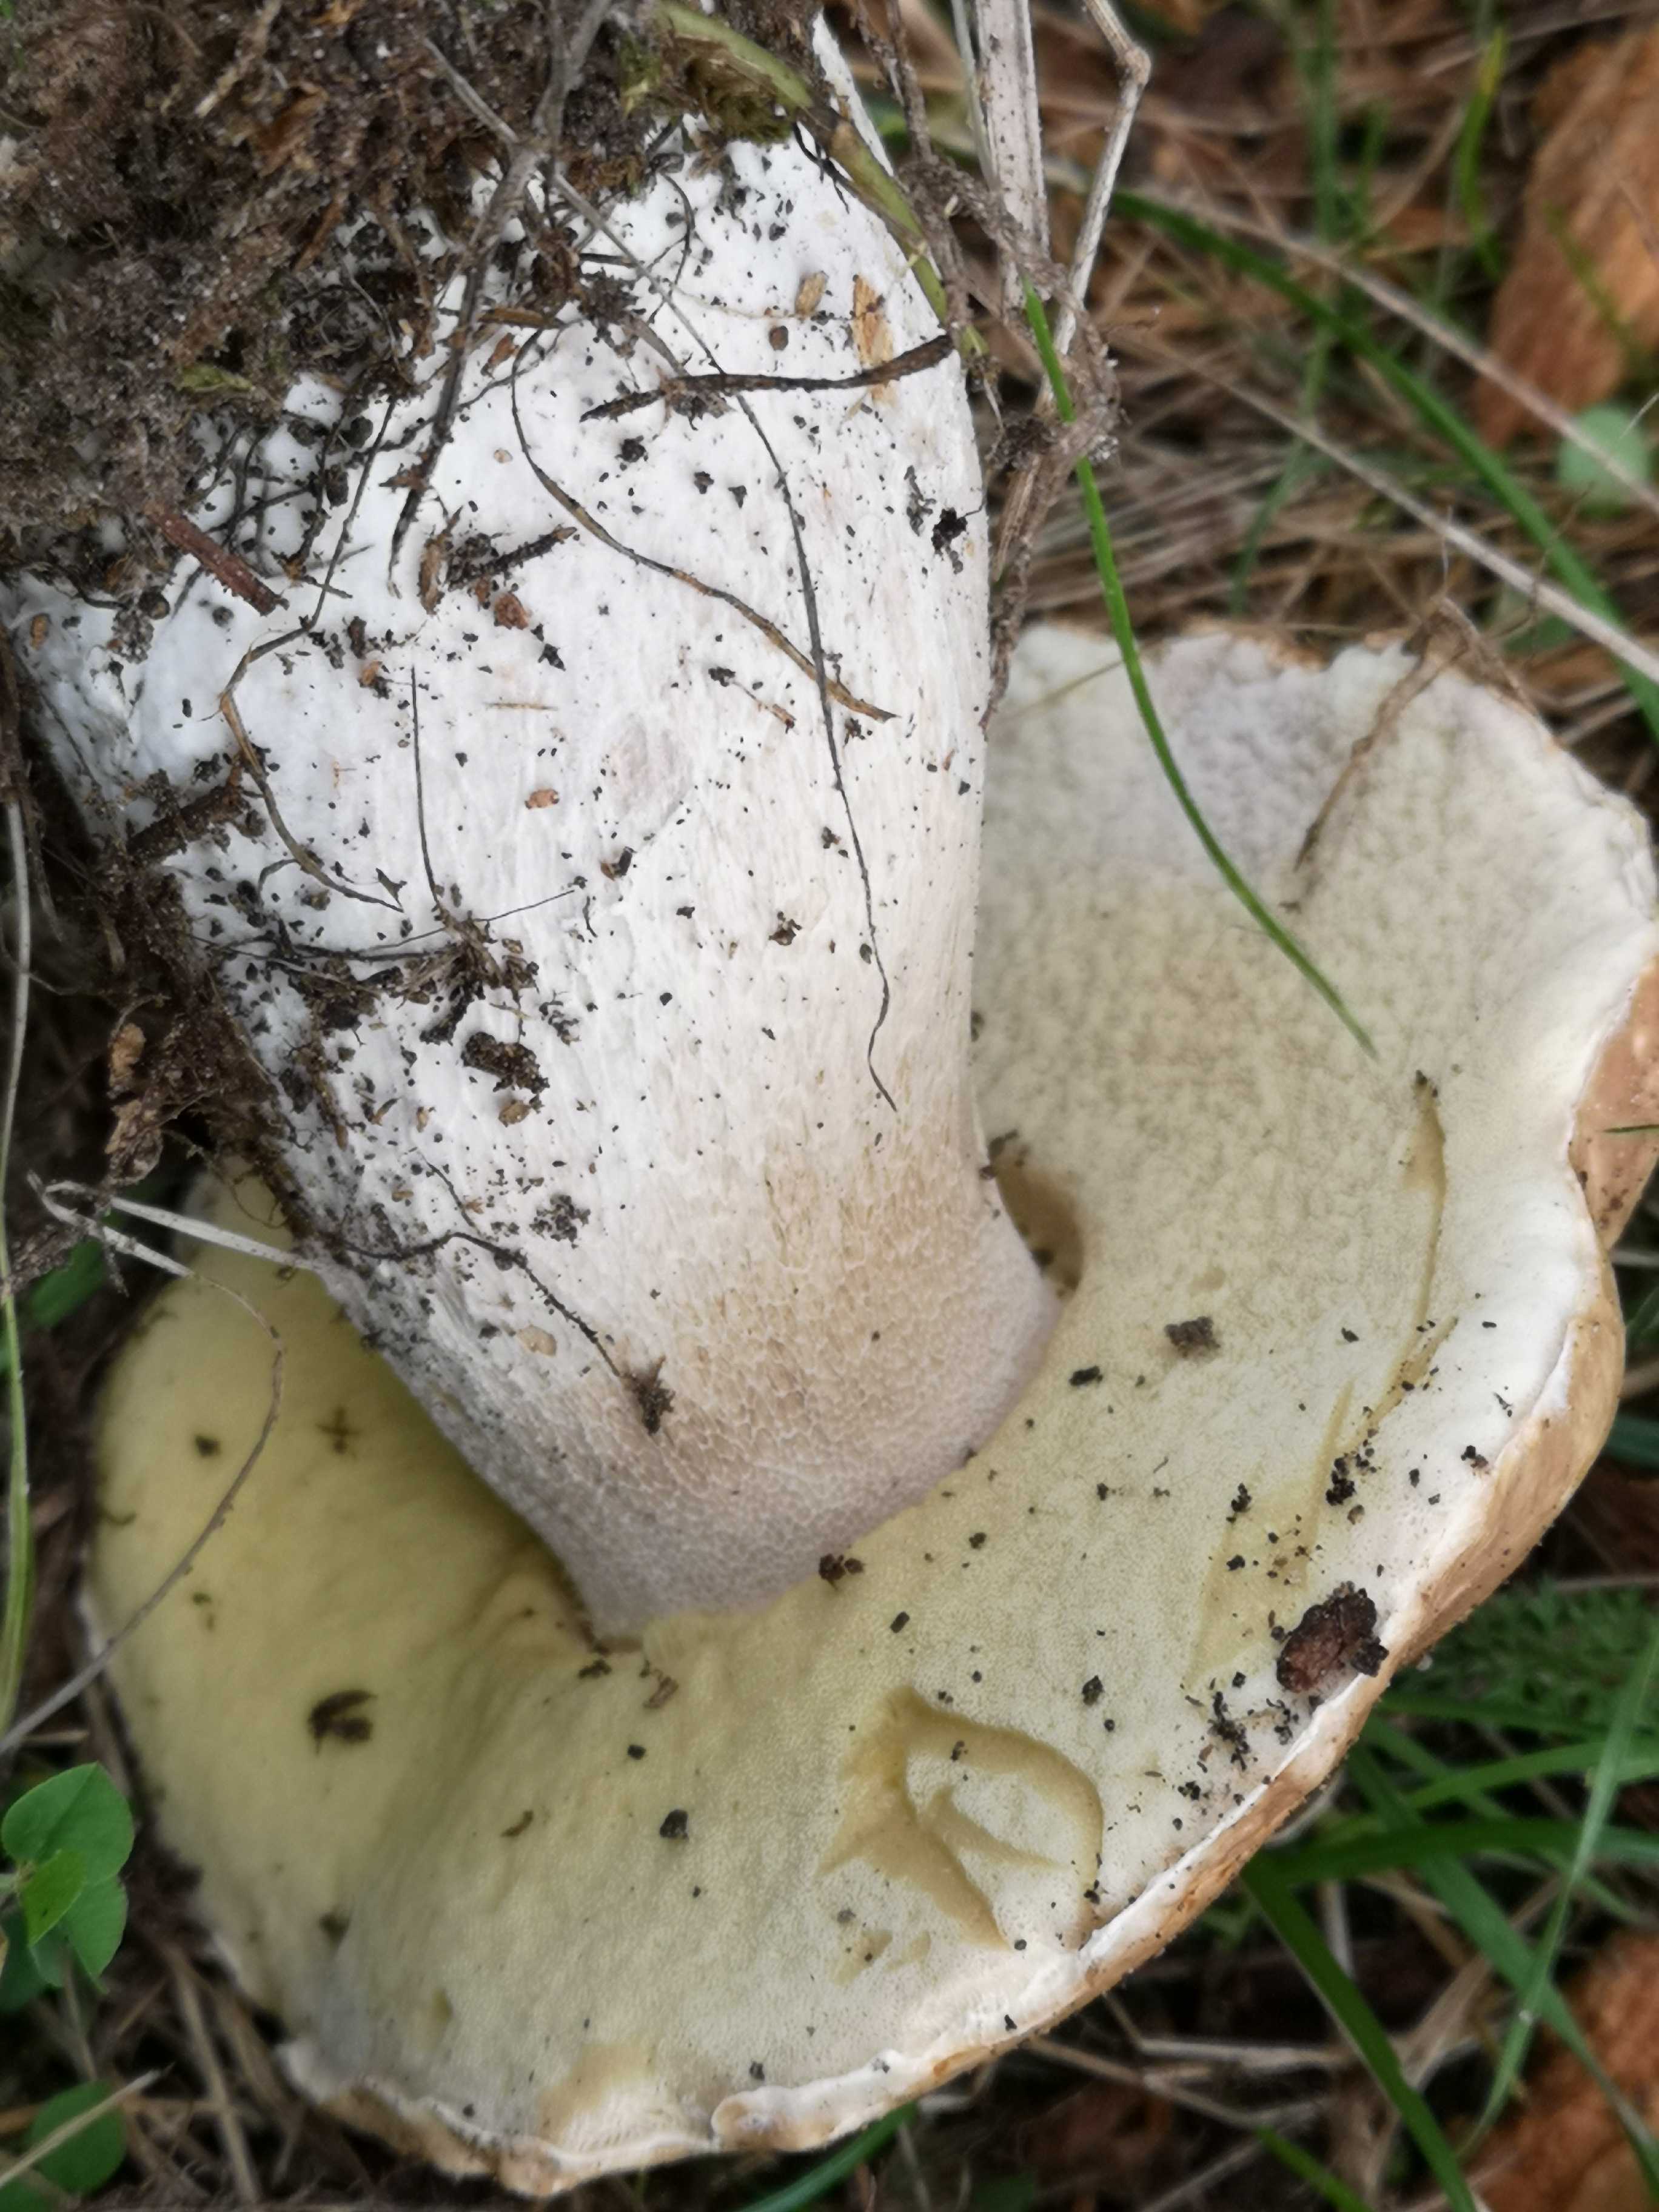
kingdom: Fungi
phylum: Basidiomycota
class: Agaricomycetes
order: Boletales
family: Boletaceae
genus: Boletus
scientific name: Boletus edulis
